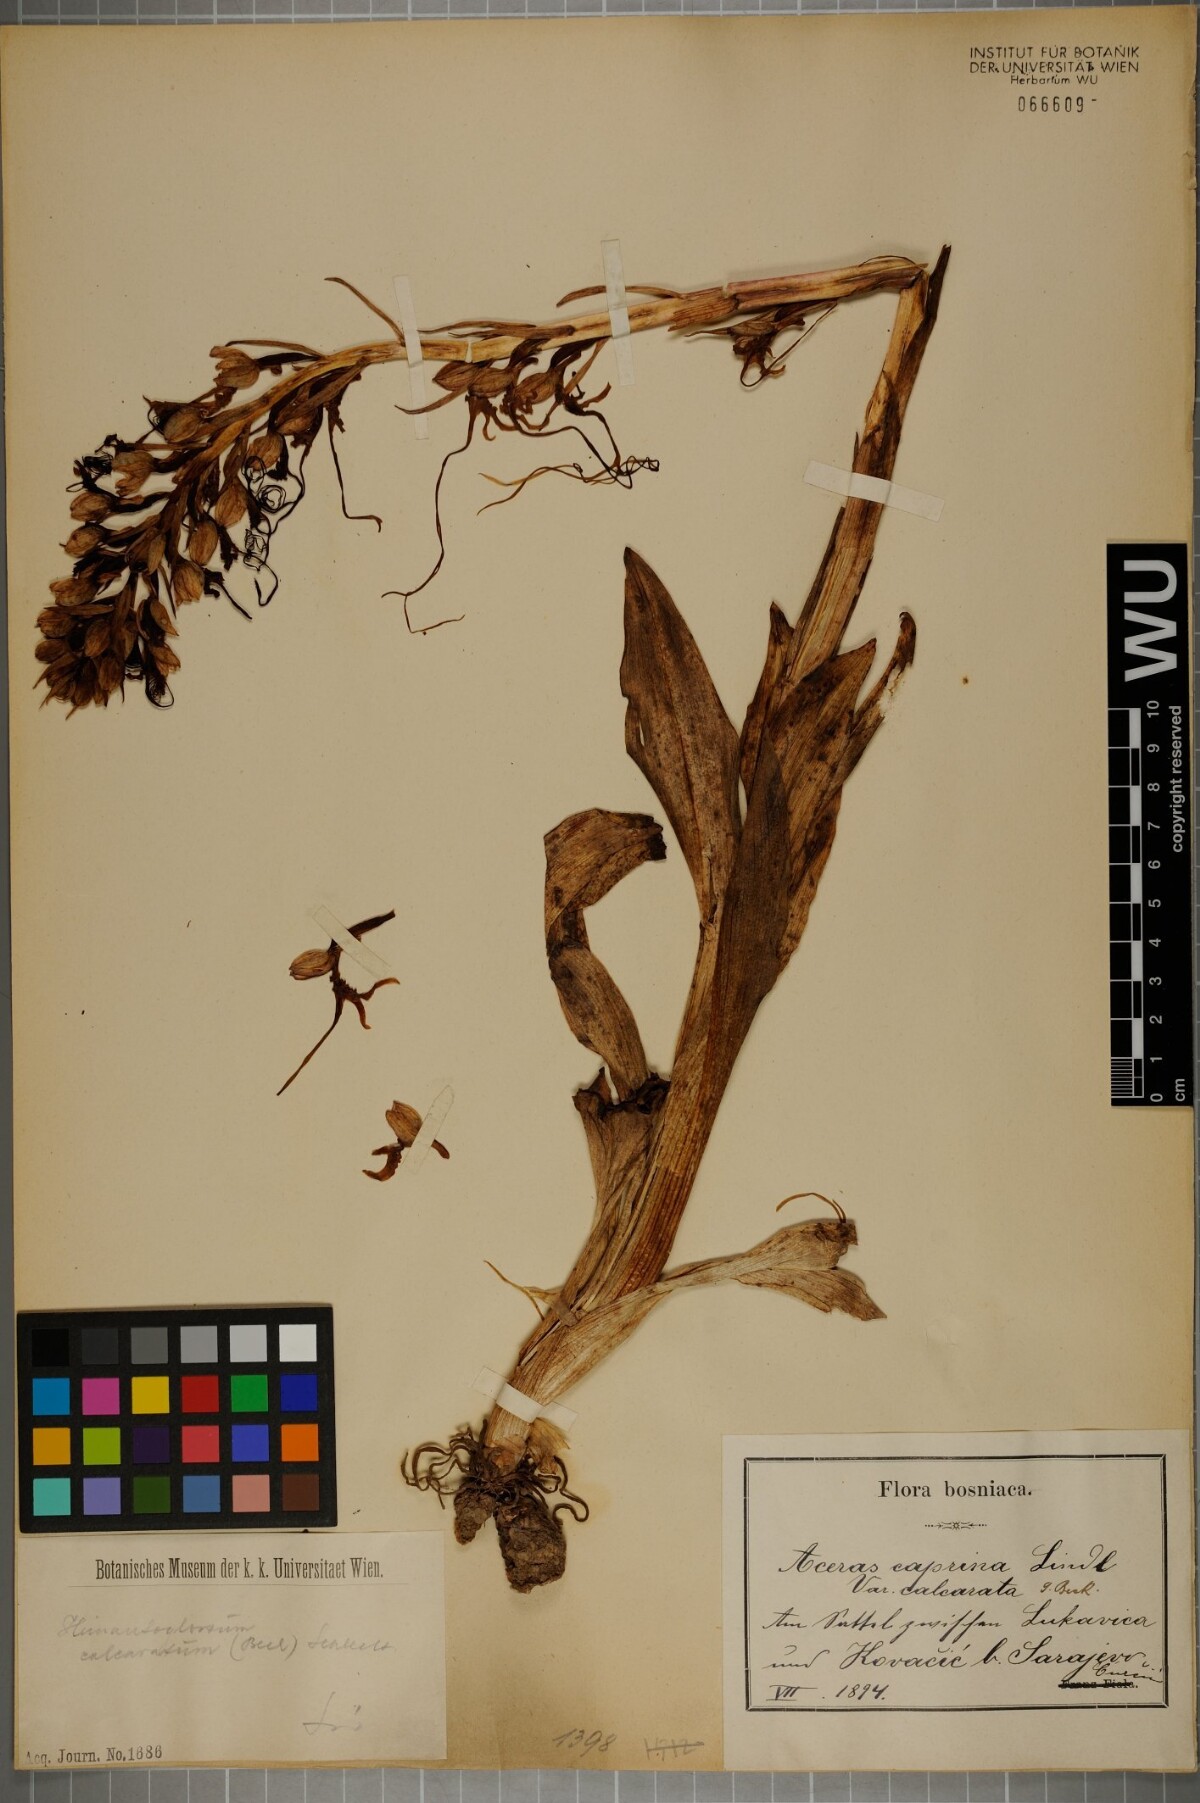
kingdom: Plantae
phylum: Tracheophyta
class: Liliopsida
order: Asparagales
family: Orchidaceae
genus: Himantoglossum
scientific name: Himantoglossum calcaratum
